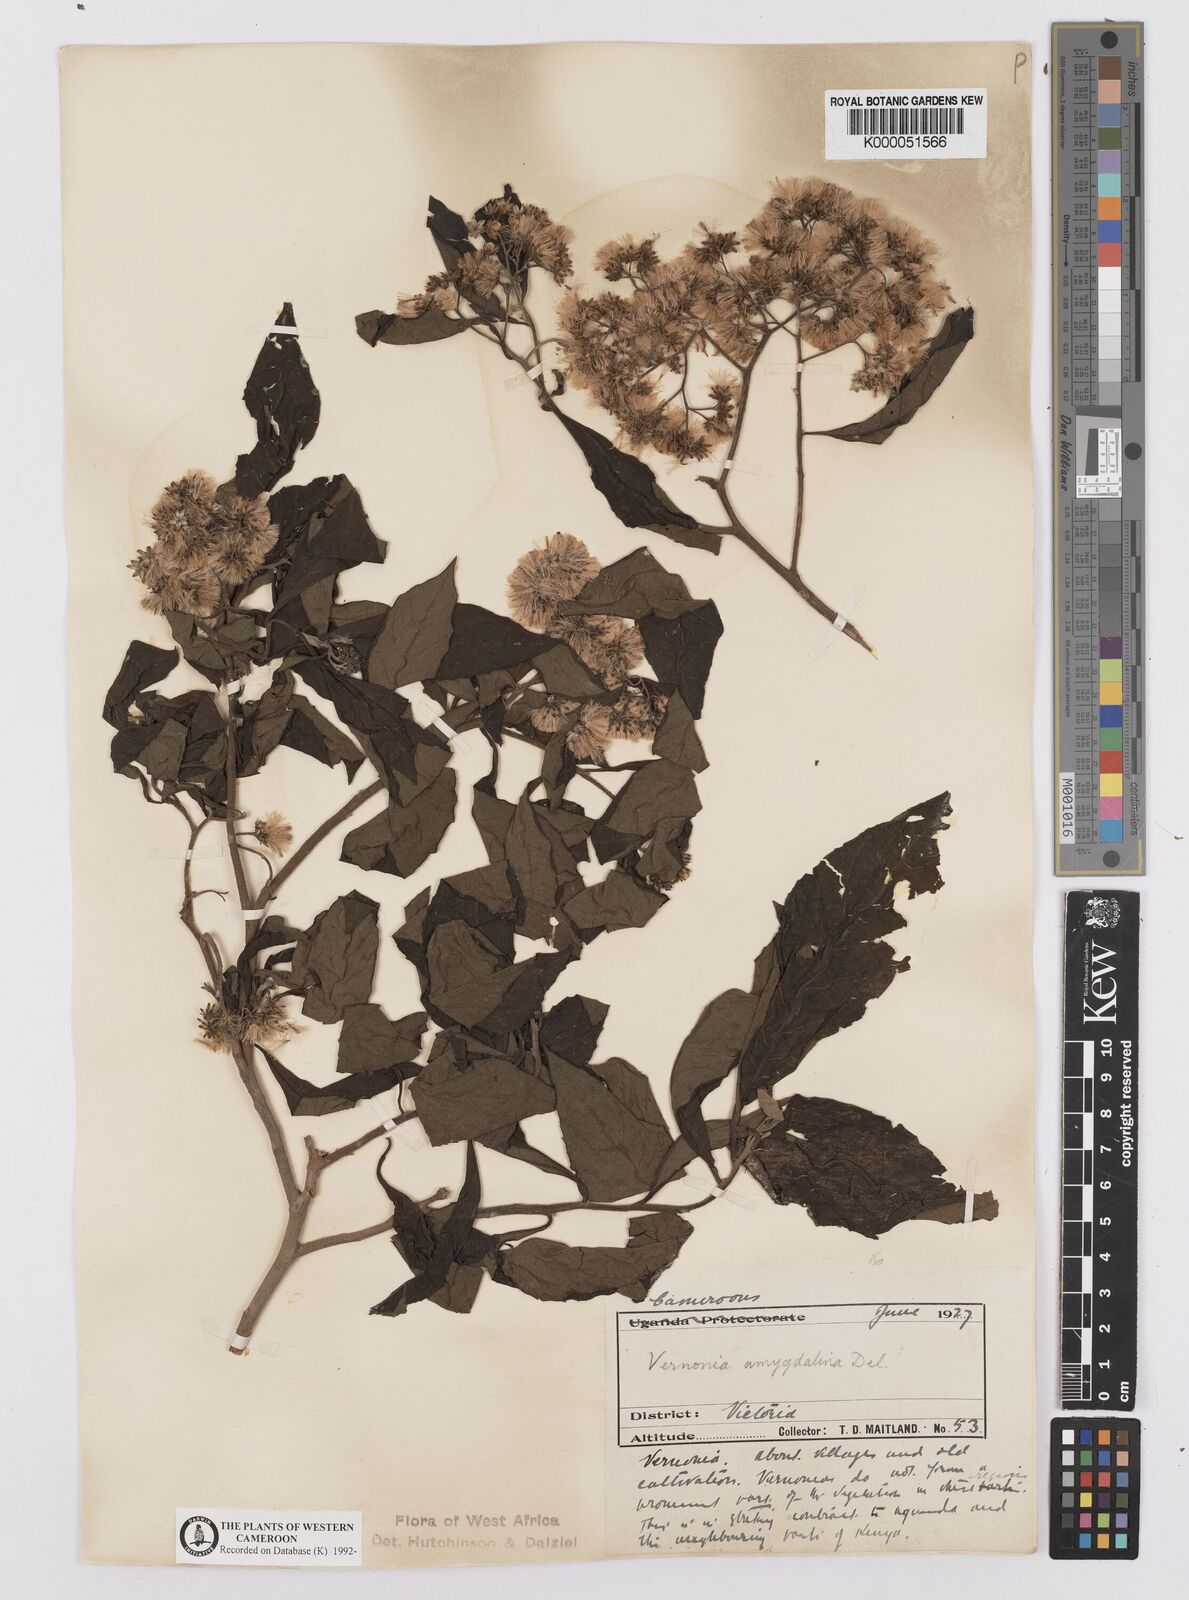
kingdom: Plantae
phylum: Tracheophyta
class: Magnoliopsida
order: Asterales
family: Asteraceae
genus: Gymnanthemum
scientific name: Gymnanthemum amygdalinum
